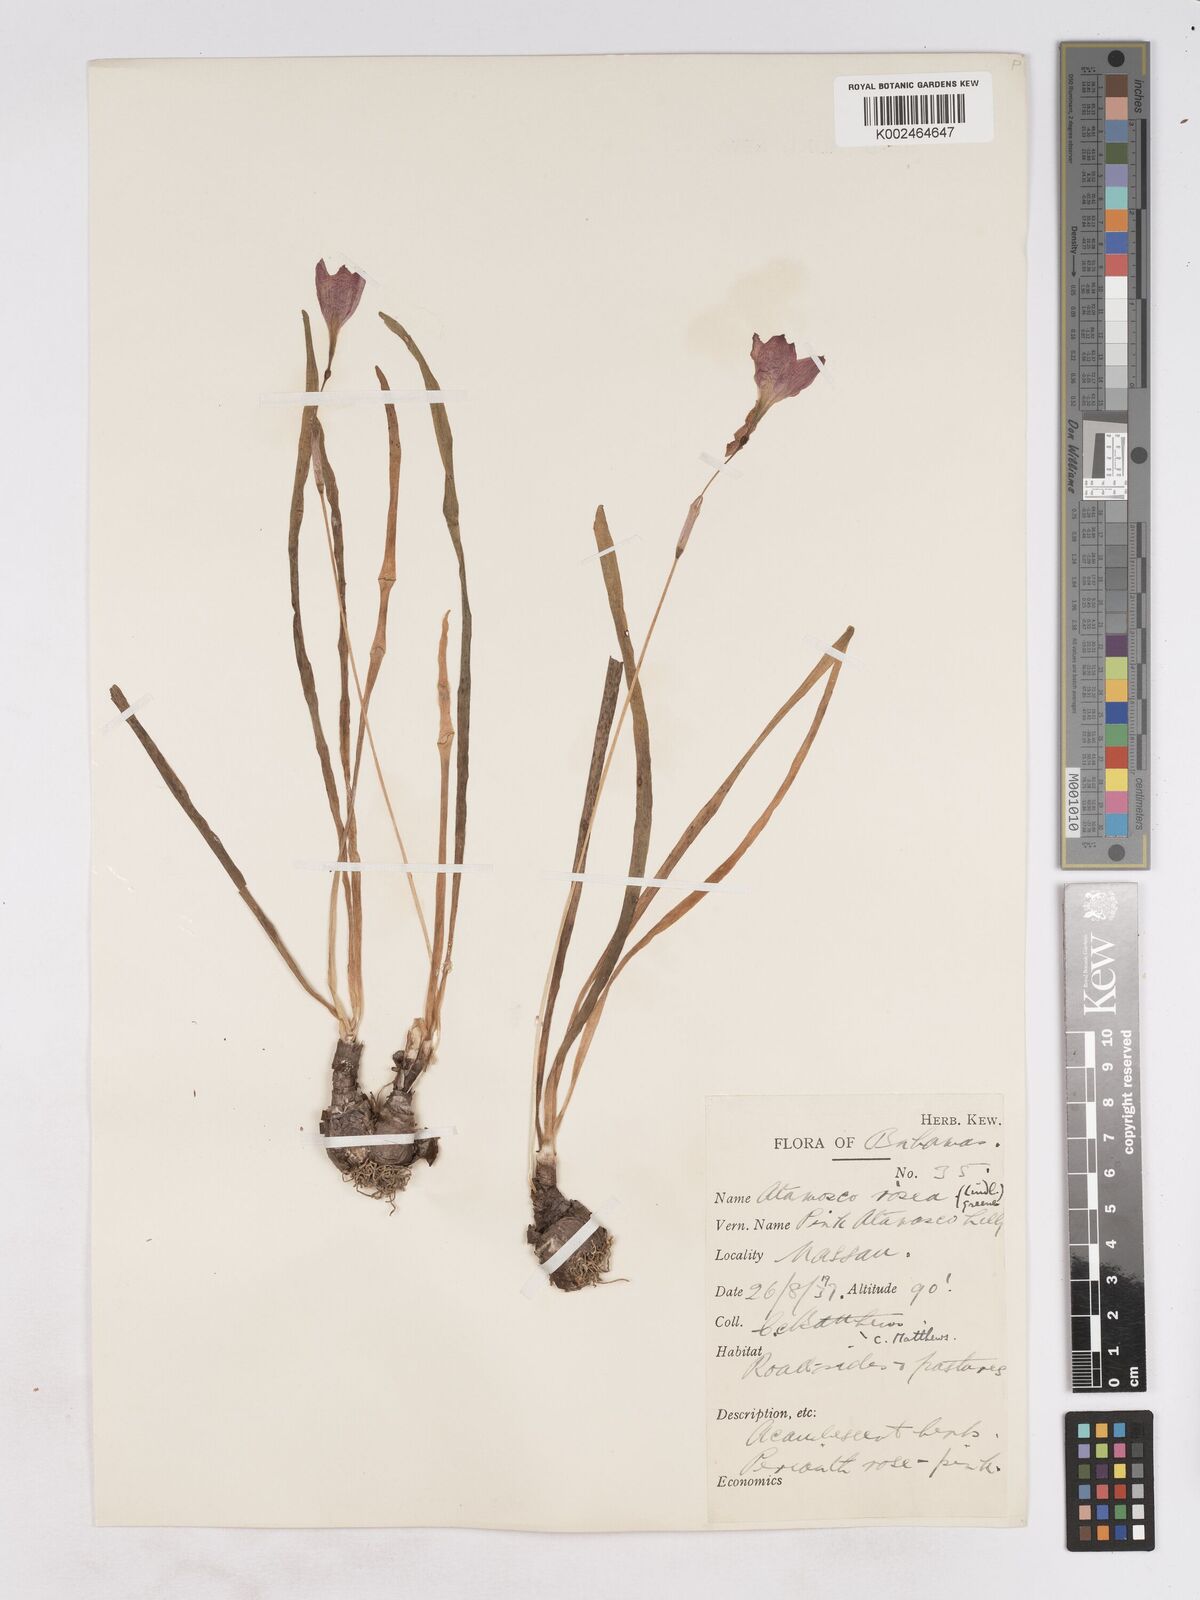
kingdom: Plantae
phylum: Tracheophyta
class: Liliopsida
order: Asparagales
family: Amaryllidaceae
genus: Zephyranthes
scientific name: Zephyranthes rosea
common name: Cuban zephyrlily
